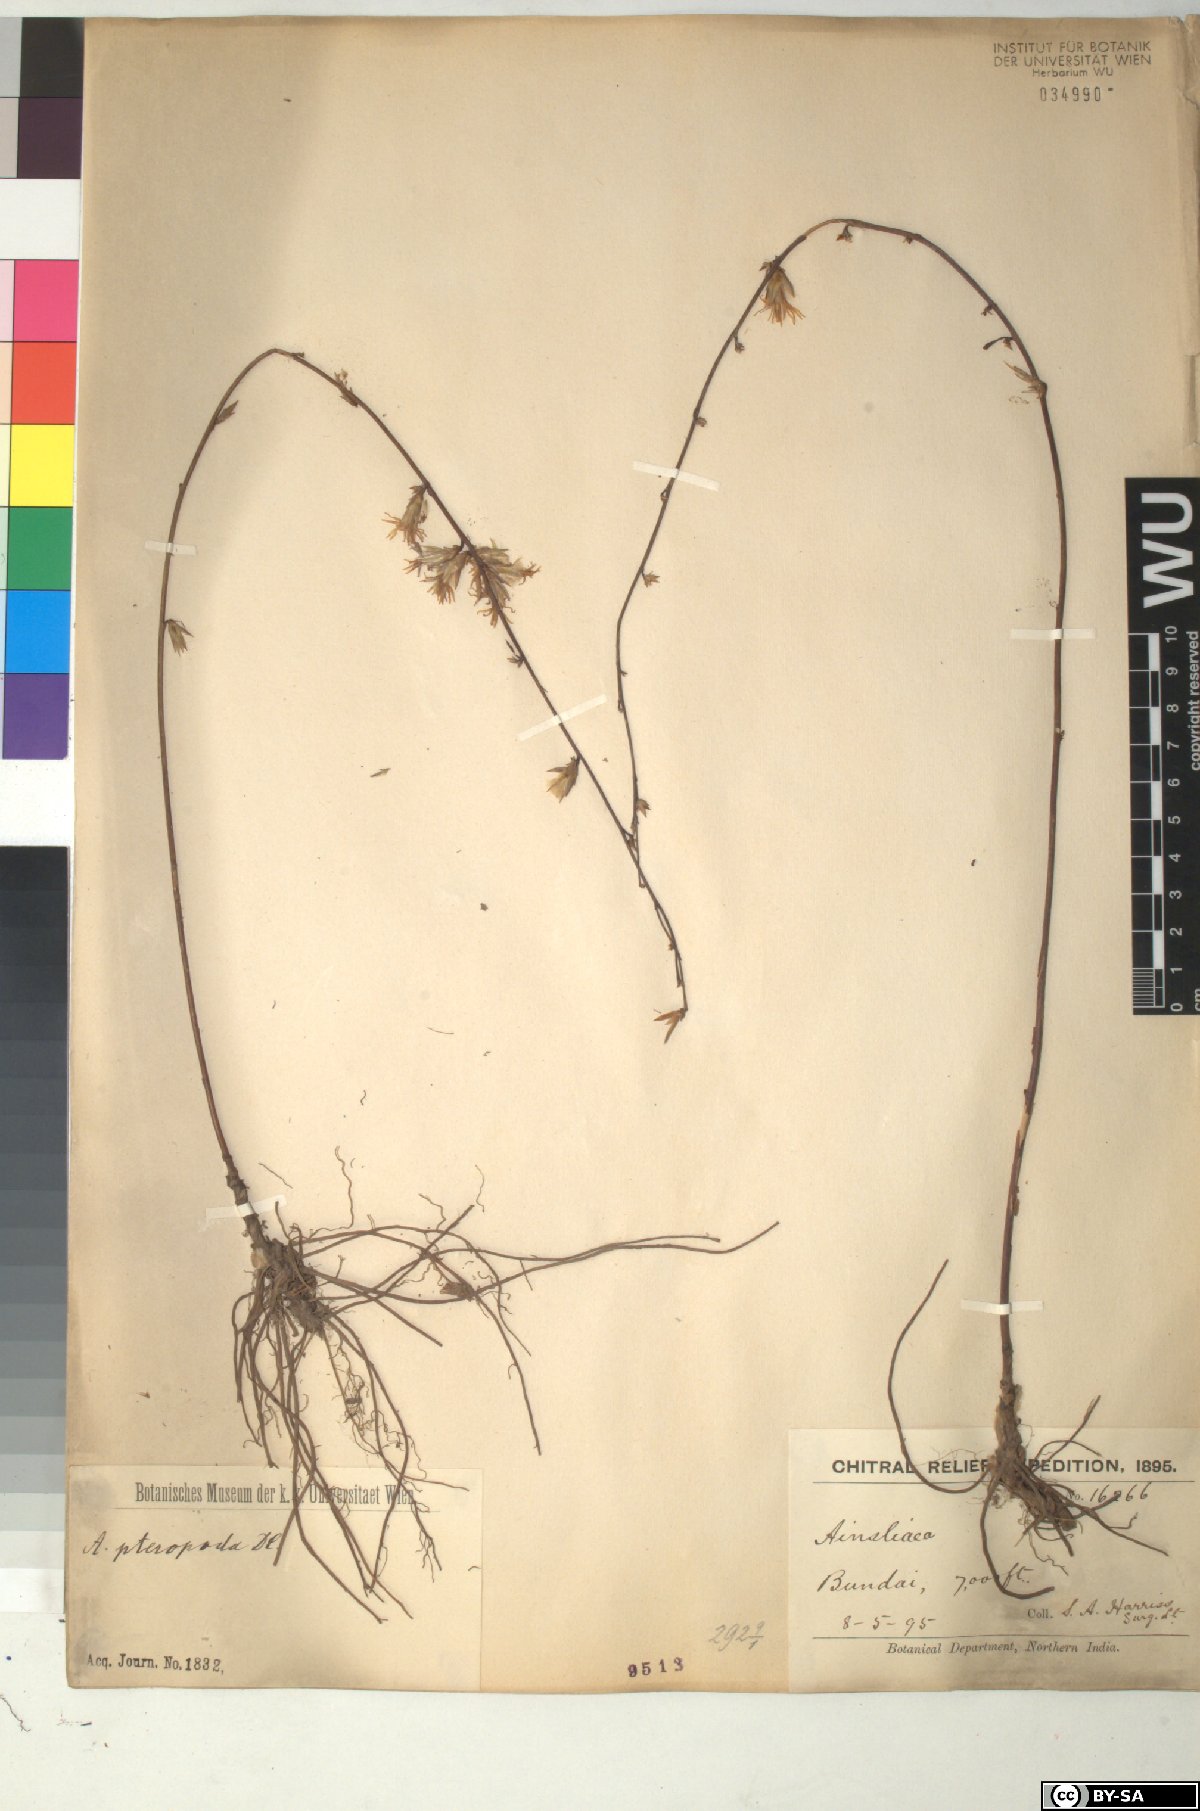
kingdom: Plantae
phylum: Tracheophyta
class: Magnoliopsida
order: Asterales
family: Asteraceae
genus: Ainsliaea
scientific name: Ainsliaea latifolia
